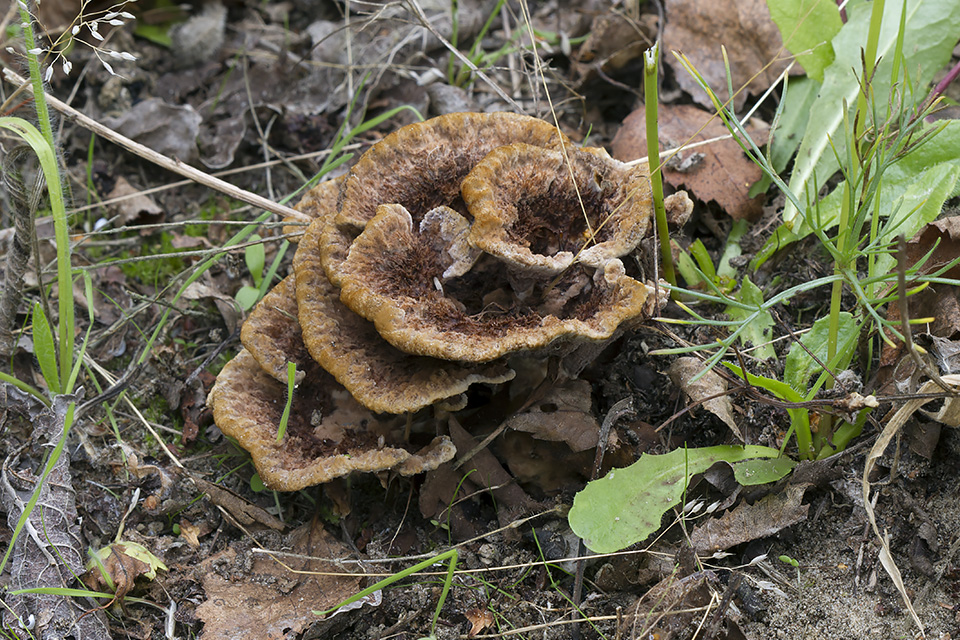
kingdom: Fungi
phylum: Basidiomycota
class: Agaricomycetes
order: Thelephorales
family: Thelephoraceae
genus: Thelephora
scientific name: Thelephora terrestris
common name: fliget frynsesvamp
